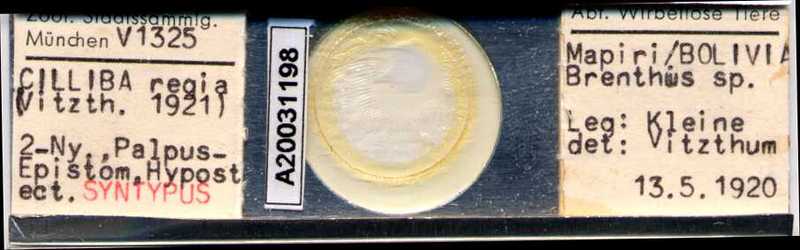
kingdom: Animalia
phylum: Arthropoda
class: Arachnida
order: Mesostigmata
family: Uropodidae
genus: Cilliba
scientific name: Cilliba
